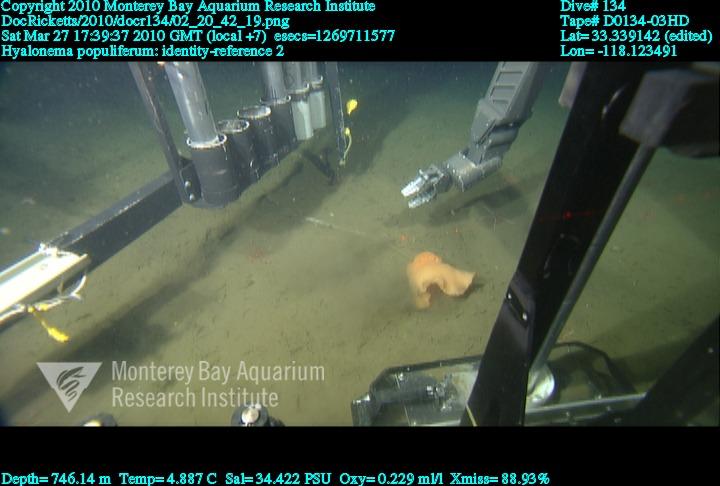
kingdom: Animalia
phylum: Porifera
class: Hexactinellida
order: Amphidiscosida
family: Hyalonematidae
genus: Hyalonema
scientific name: Hyalonema populiferum
